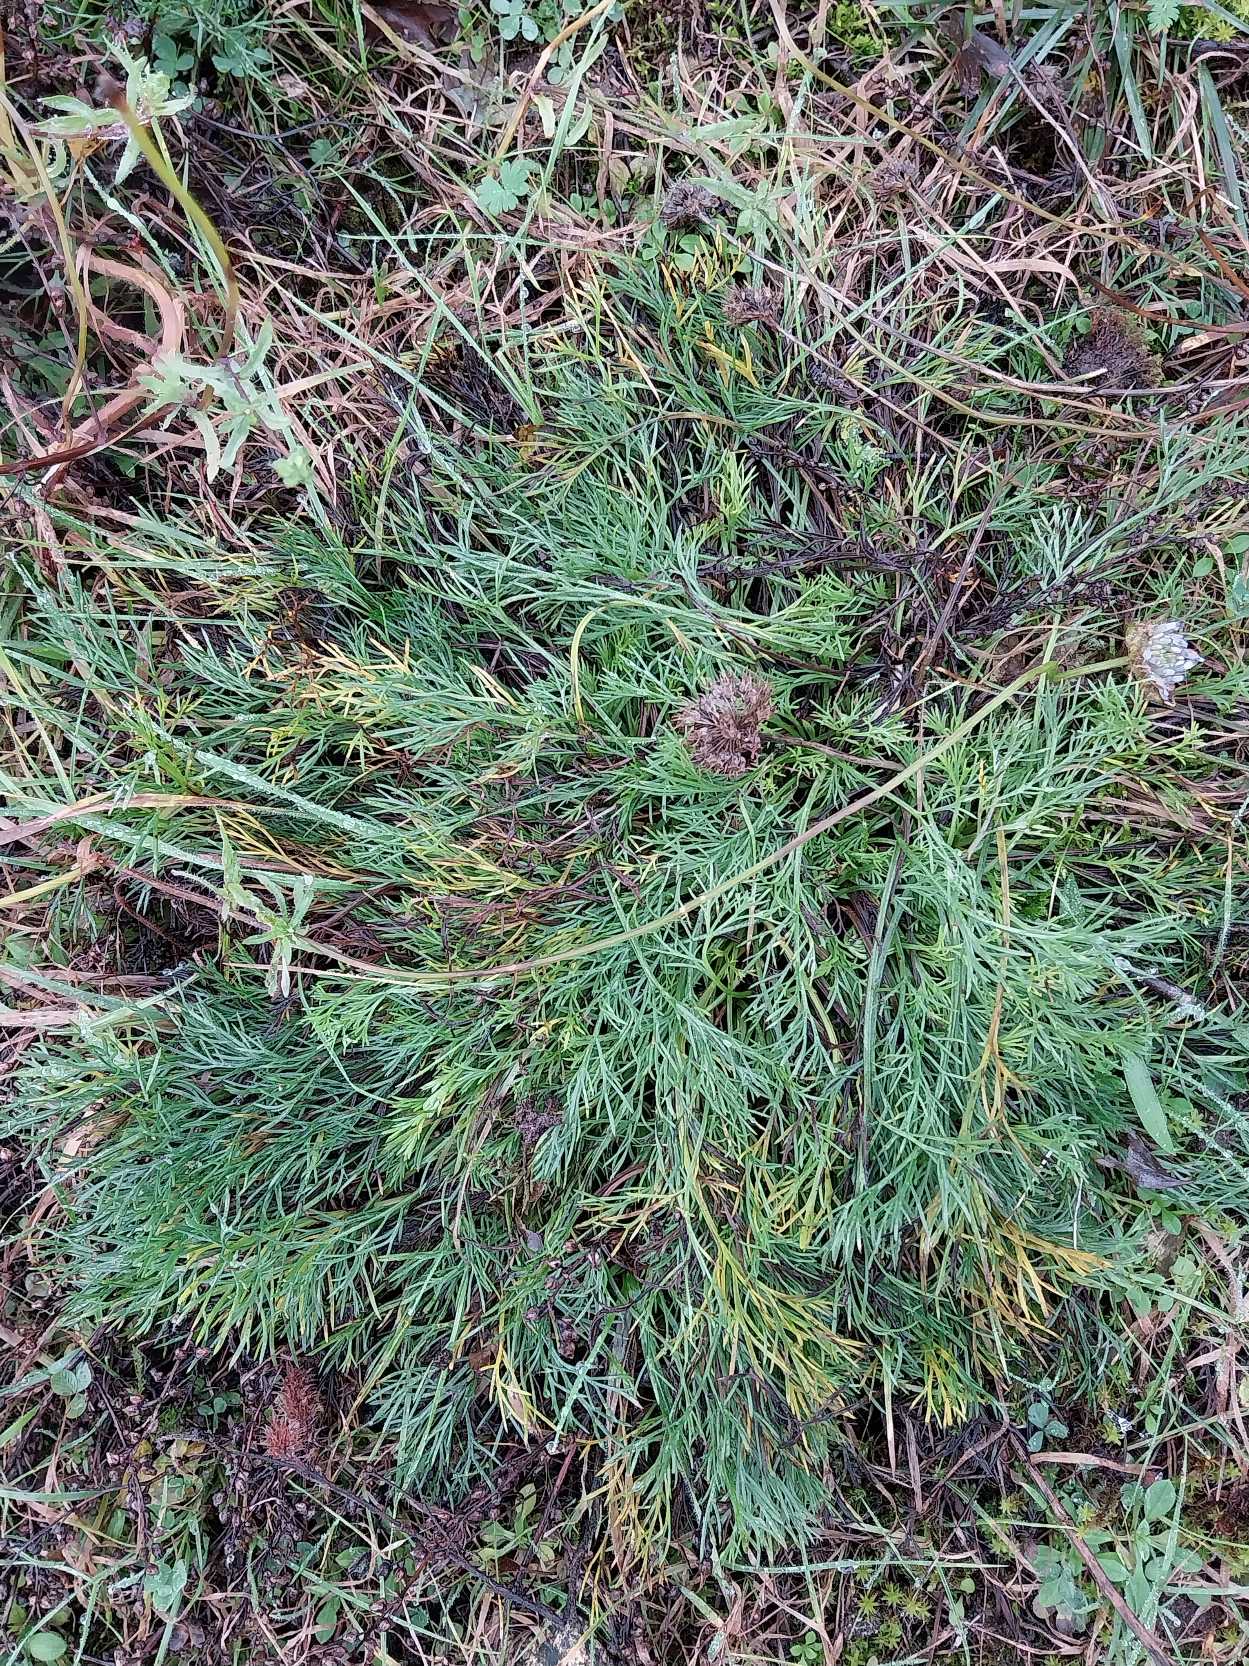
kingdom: Plantae
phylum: Tracheophyta
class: Magnoliopsida
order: Asterales
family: Asteraceae
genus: Artemisia
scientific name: Artemisia campestris
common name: Mark-bynke
